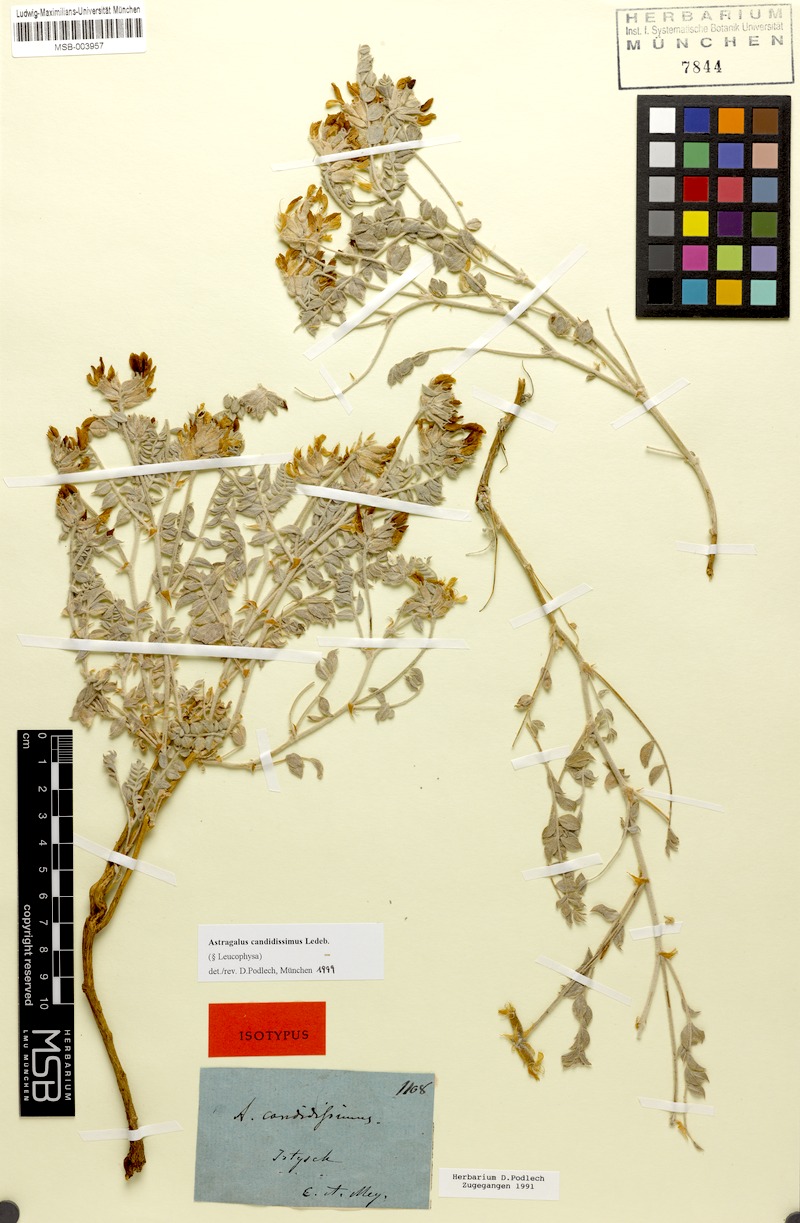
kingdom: Plantae
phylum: Tracheophyta
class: Magnoliopsida
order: Fabales
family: Fabaceae
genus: Astragalus
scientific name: Astragalus candidissimus
